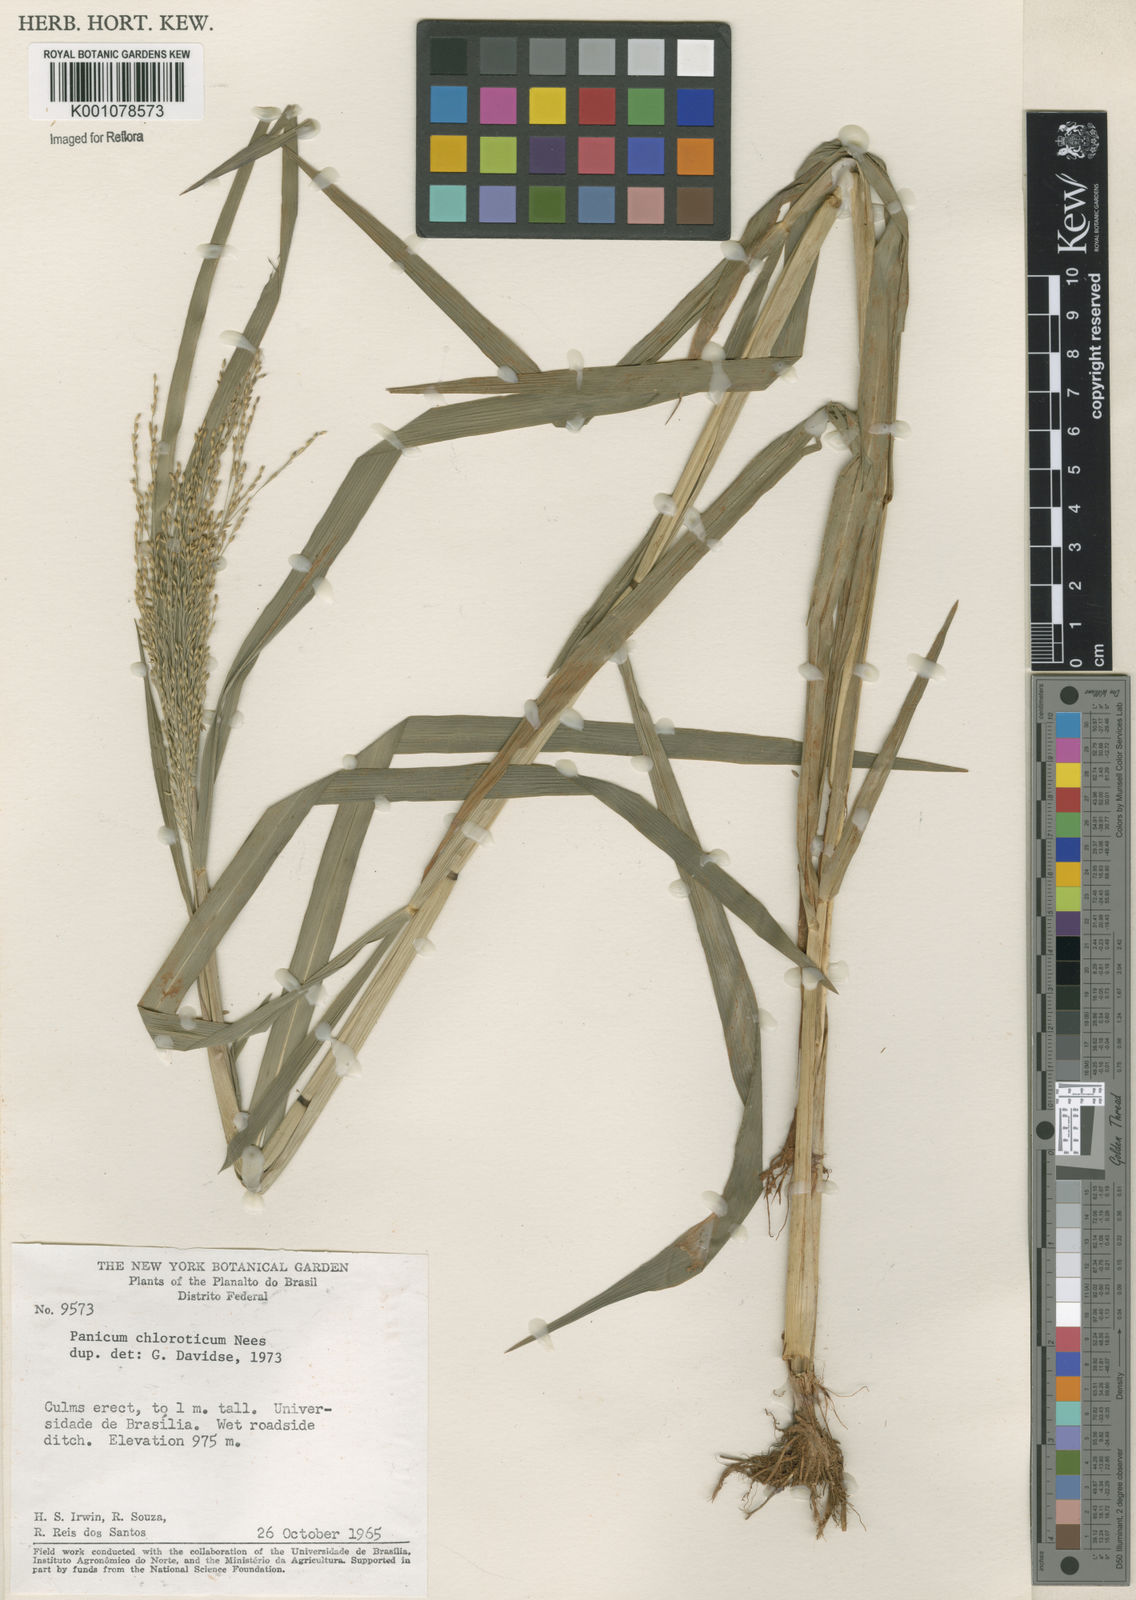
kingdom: Plantae
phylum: Tracheophyta
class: Liliopsida
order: Poales
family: Poaceae
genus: Panicum
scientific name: Panicum dichotomiflorum
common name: Autumn millet
